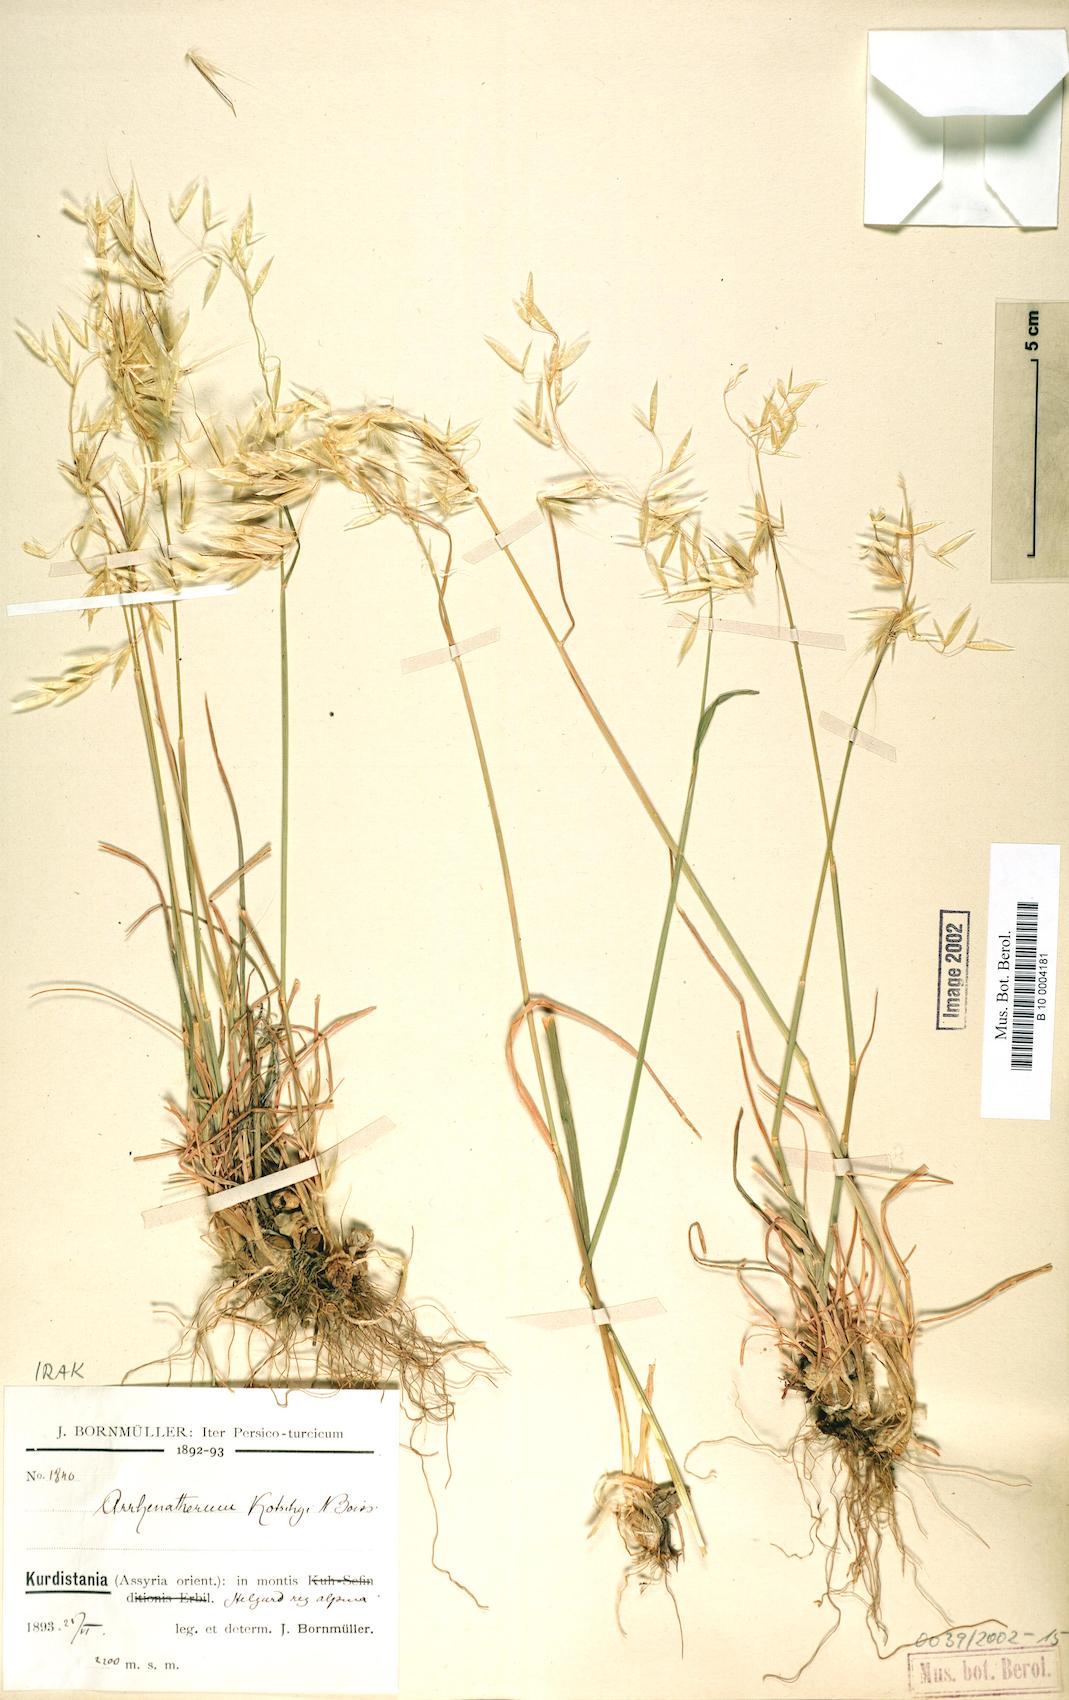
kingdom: Plantae
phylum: Tracheophyta
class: Liliopsida
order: Poales
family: Poaceae
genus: Arrhenatherum
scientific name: Arrhenatherum kotschyi
